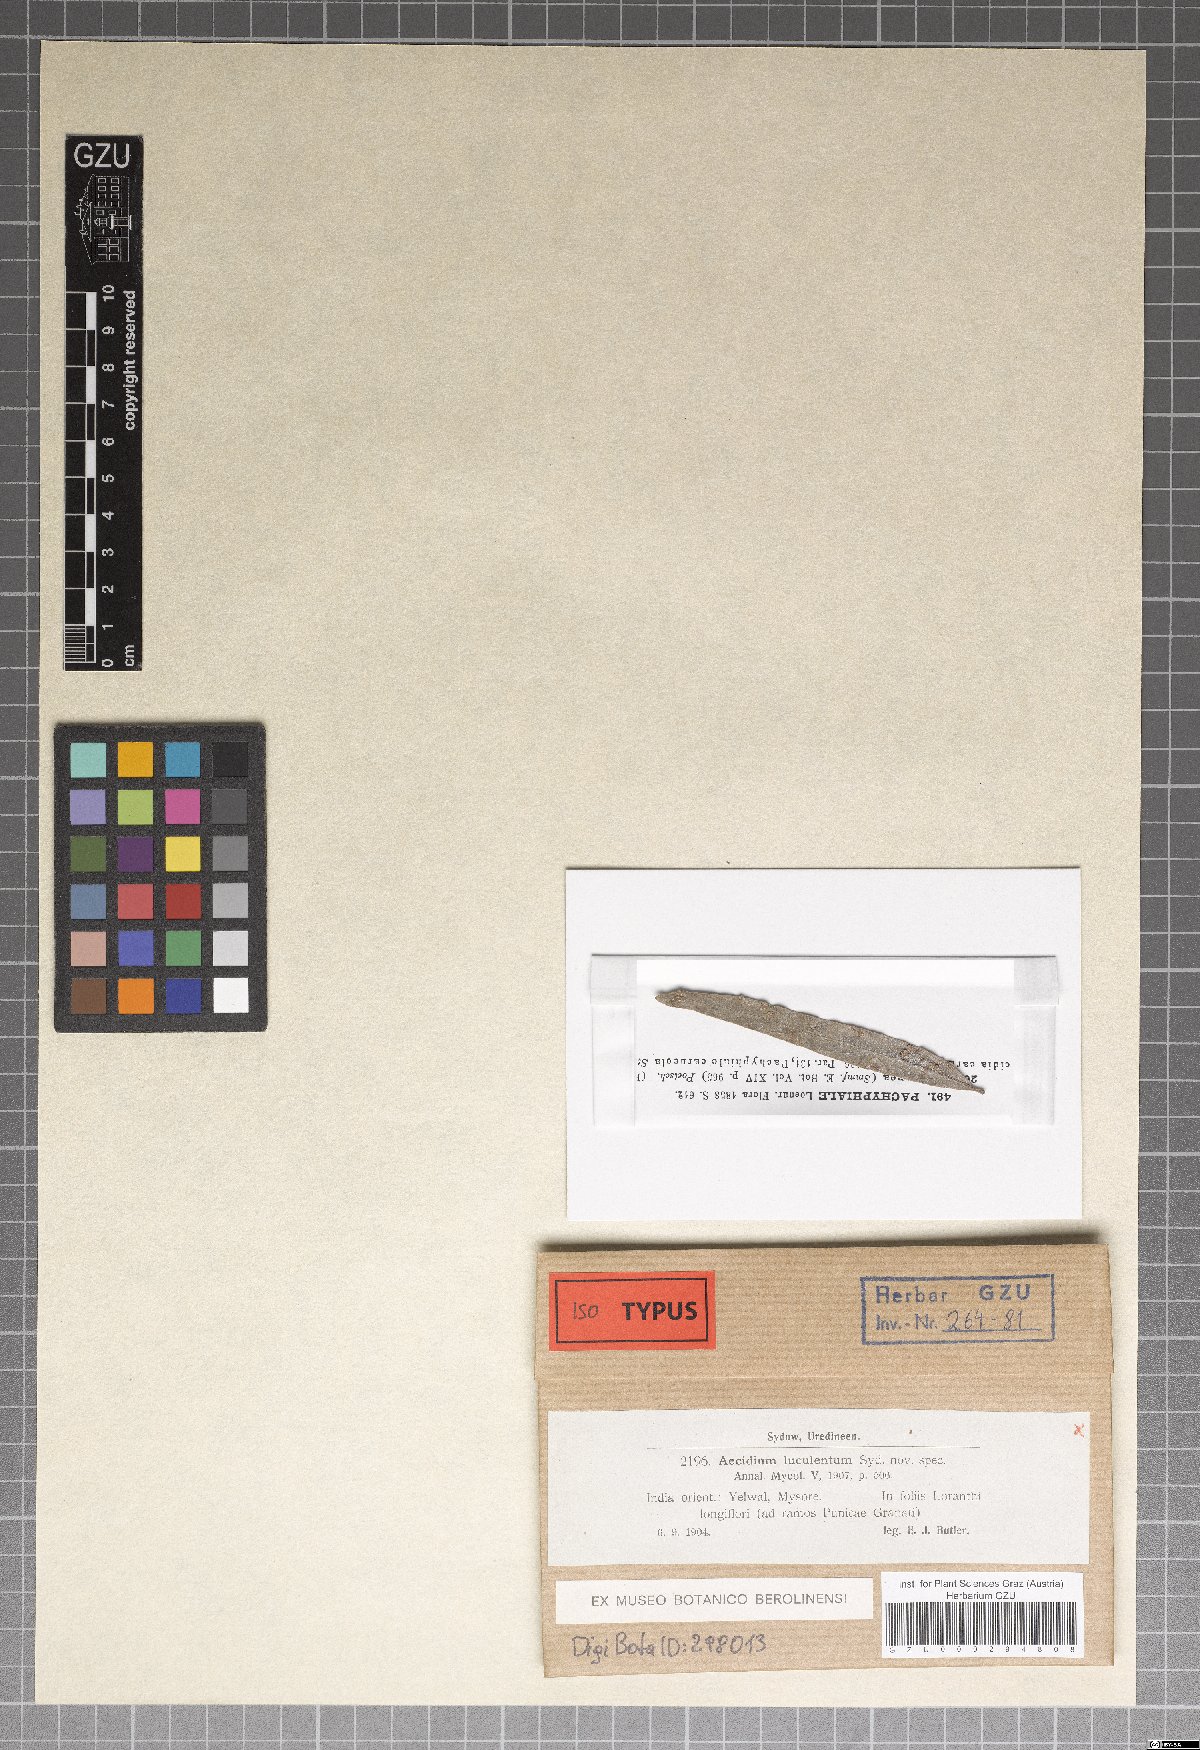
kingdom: Fungi
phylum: Basidiomycota
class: Pucciniomycetes
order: Pucciniales
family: Pucciniaceae
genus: Aecidium
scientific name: Aecidium
